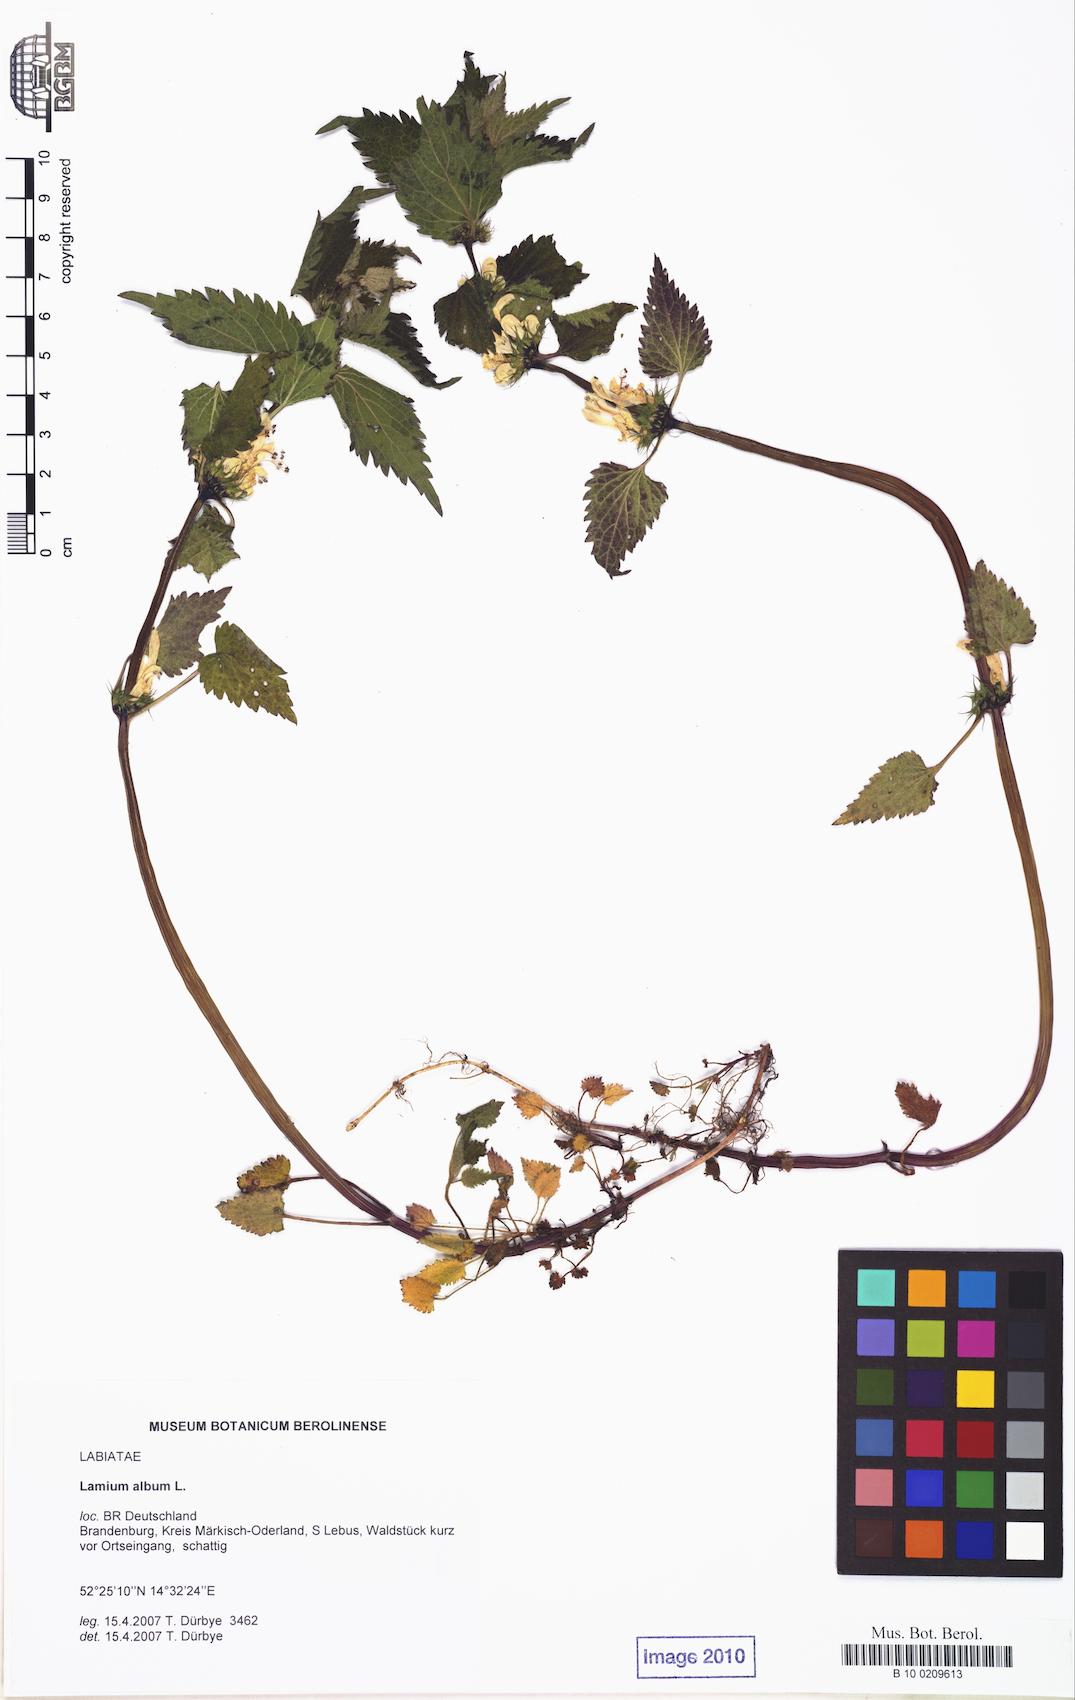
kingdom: Plantae
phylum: Tracheophyta
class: Magnoliopsida
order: Lamiales
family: Lamiaceae
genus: Lamium
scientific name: Lamium album
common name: White dead-nettle
